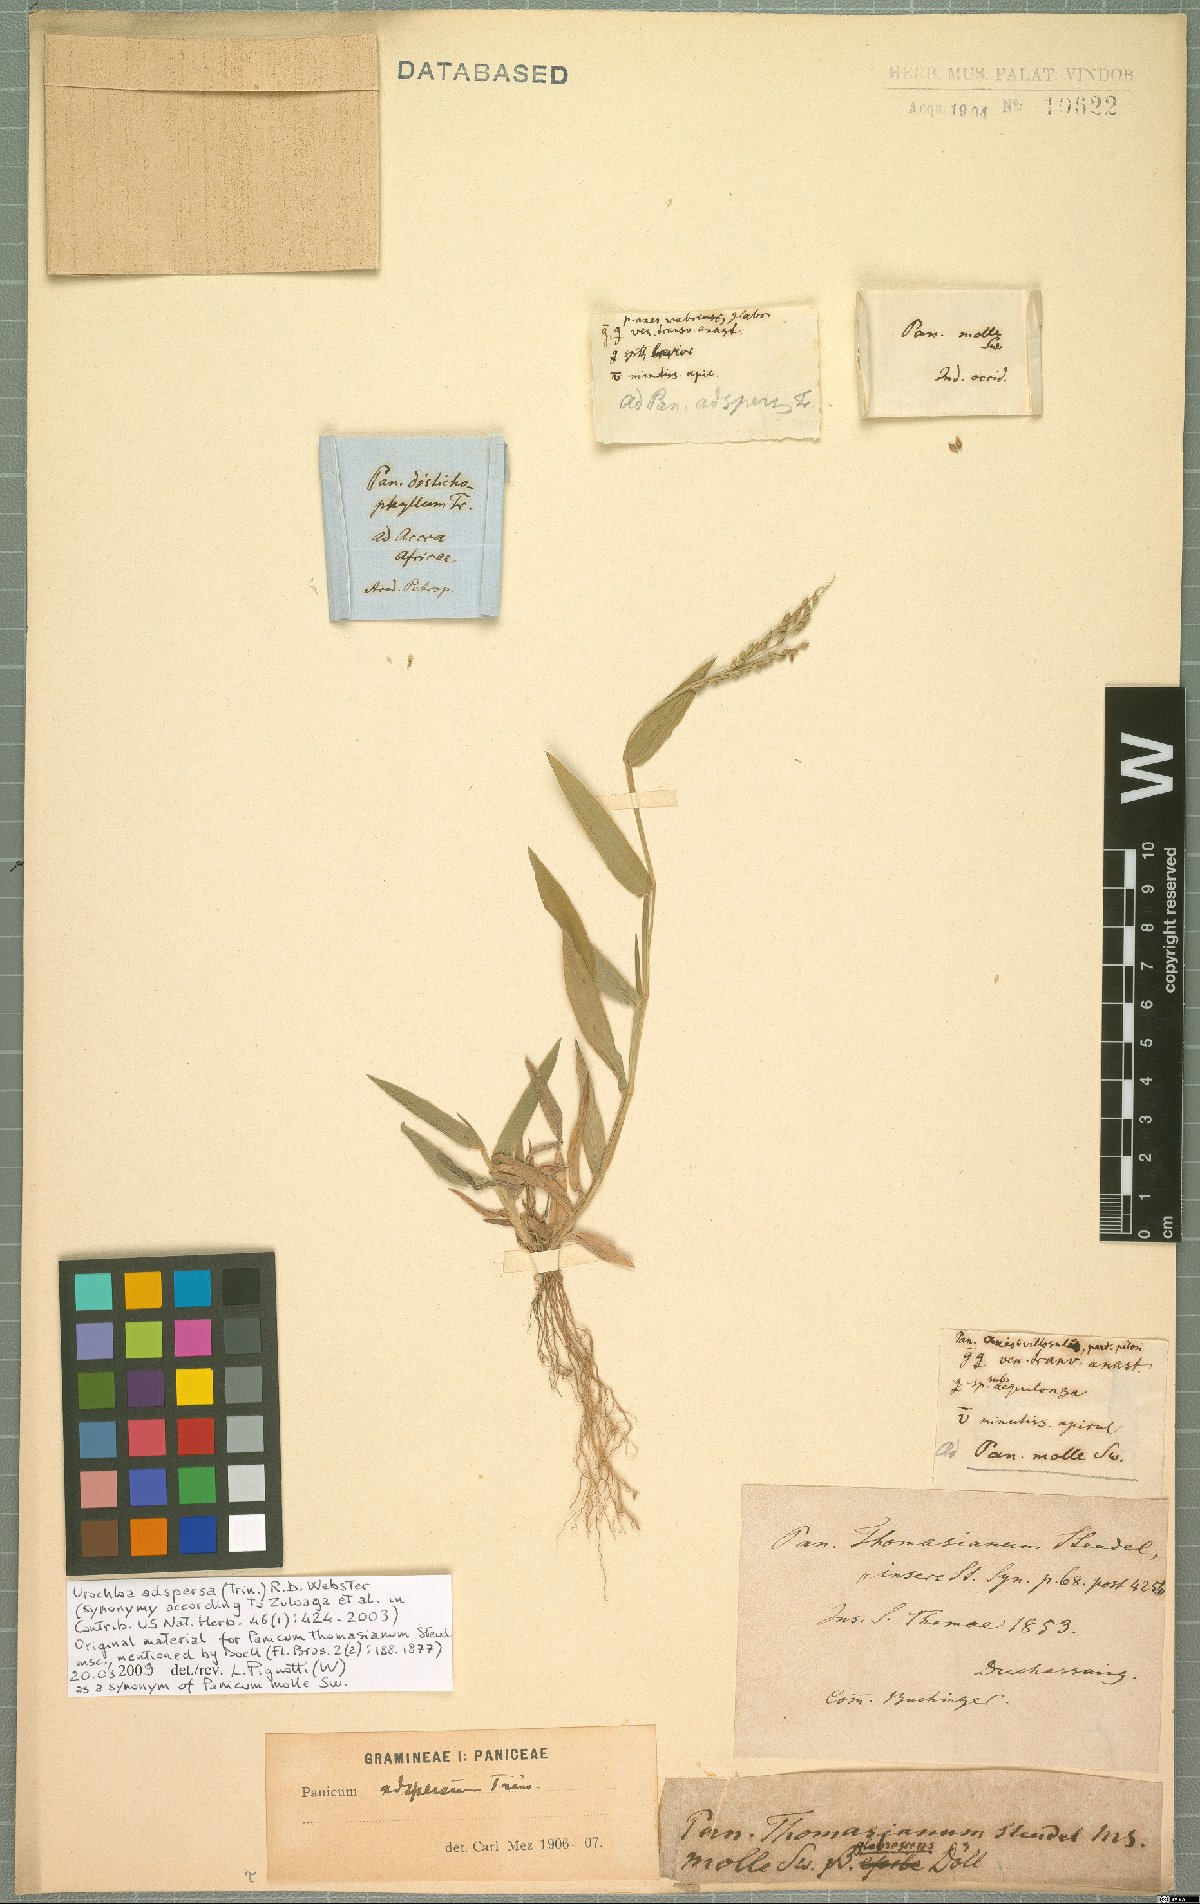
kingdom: Plantae
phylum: Tracheophyta
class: Liliopsida
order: Poales
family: Poaceae
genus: Urochloa
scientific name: Urochloa adspersa
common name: Dominican signal grass
